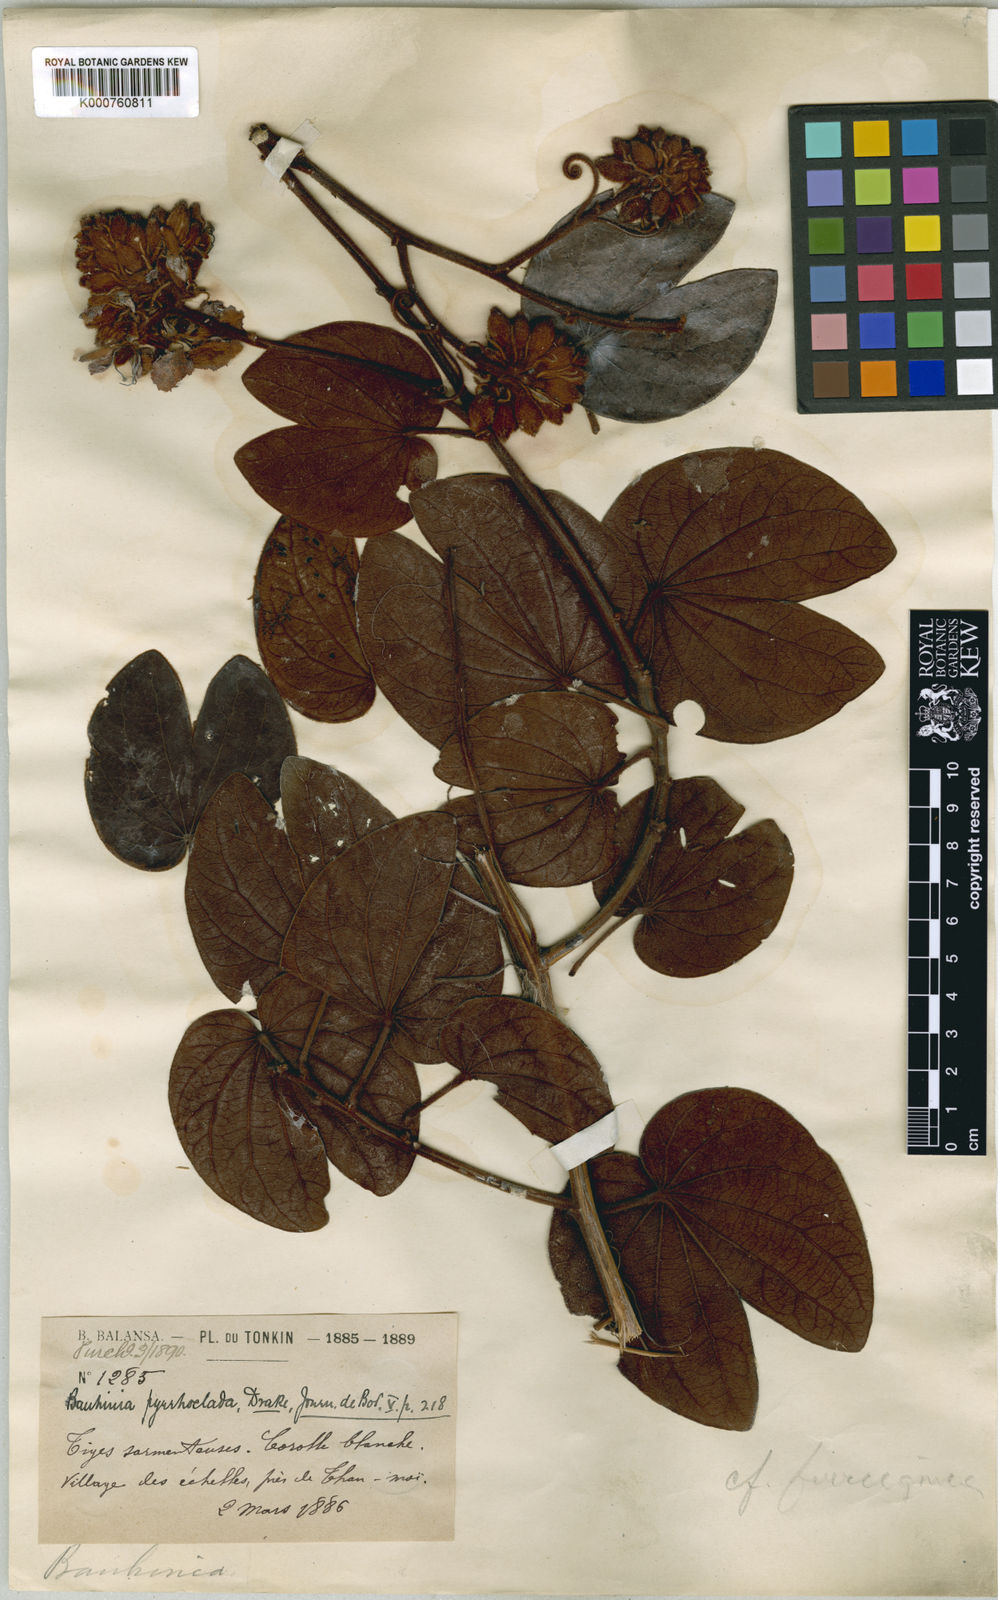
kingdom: Plantae
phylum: Tracheophyta
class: Magnoliopsida
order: Fabales
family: Fabaceae
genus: Phanera
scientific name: Phanera pyrrhoclada
